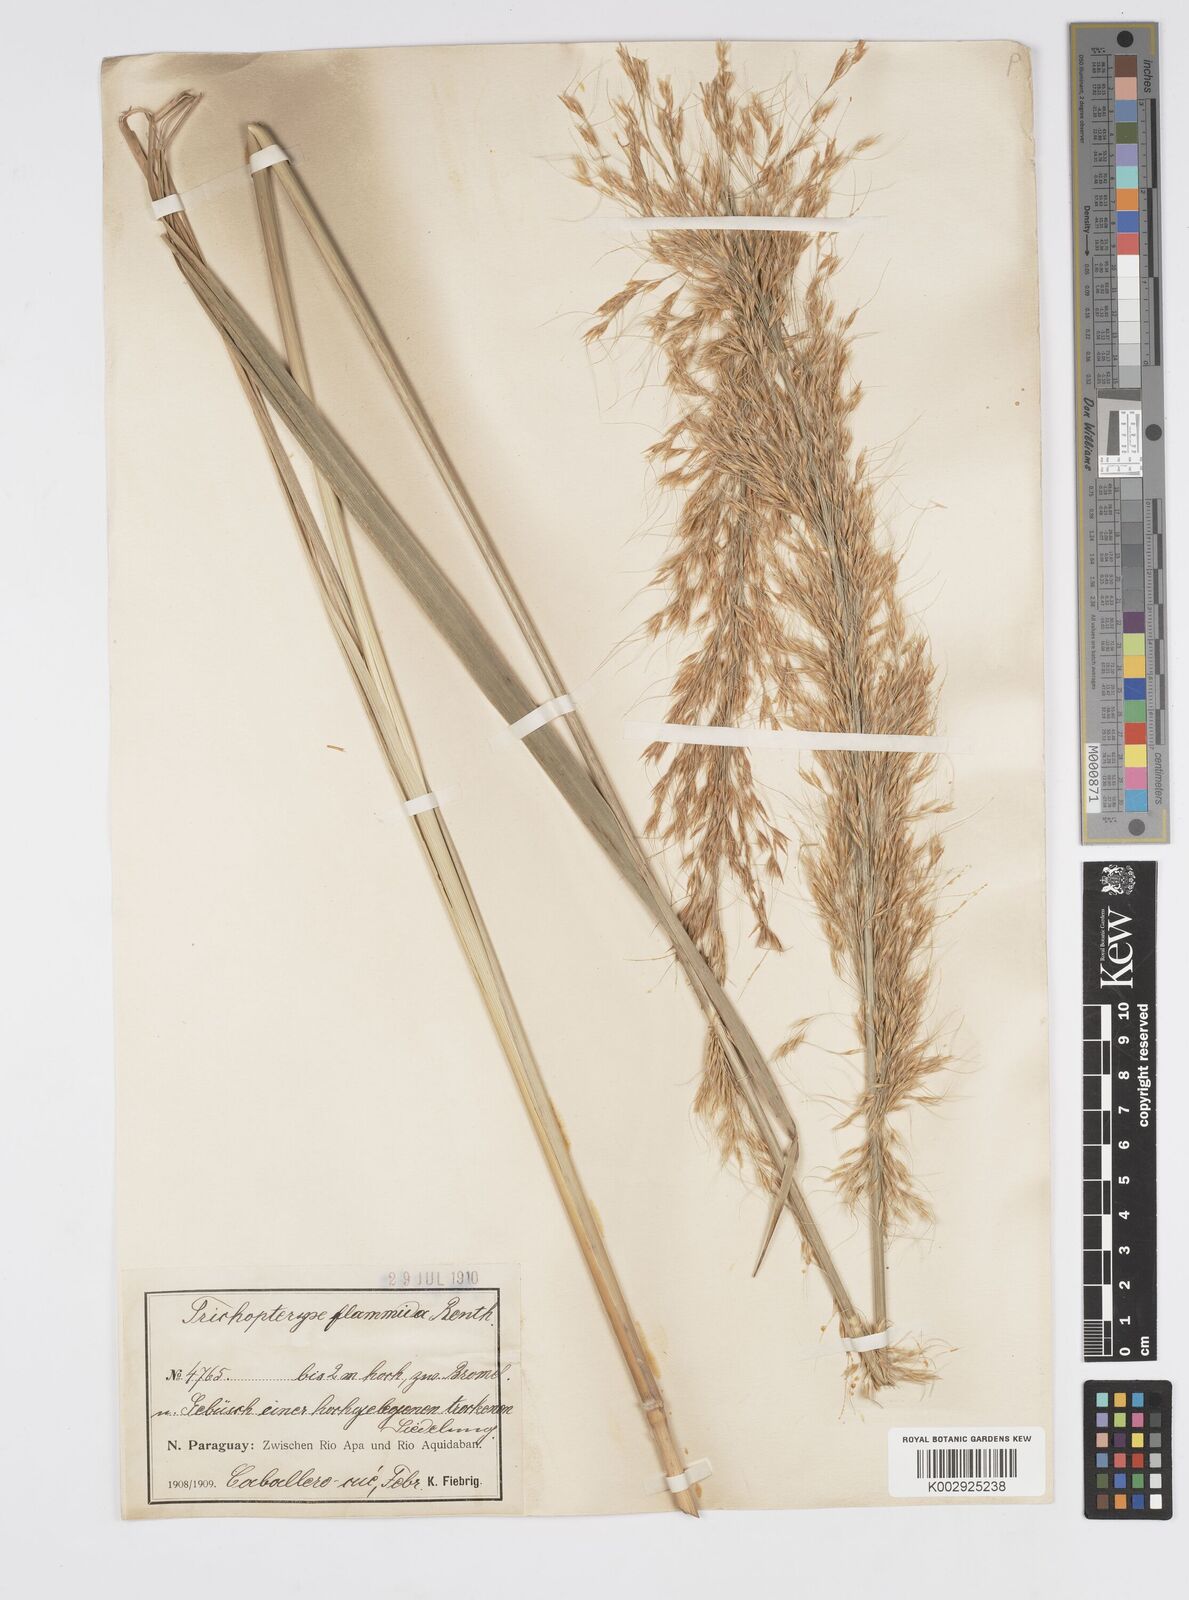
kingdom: Plantae
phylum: Tracheophyta
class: Liliopsida
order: Poales
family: Poaceae
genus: Loudetia
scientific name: Loudetia flammida
